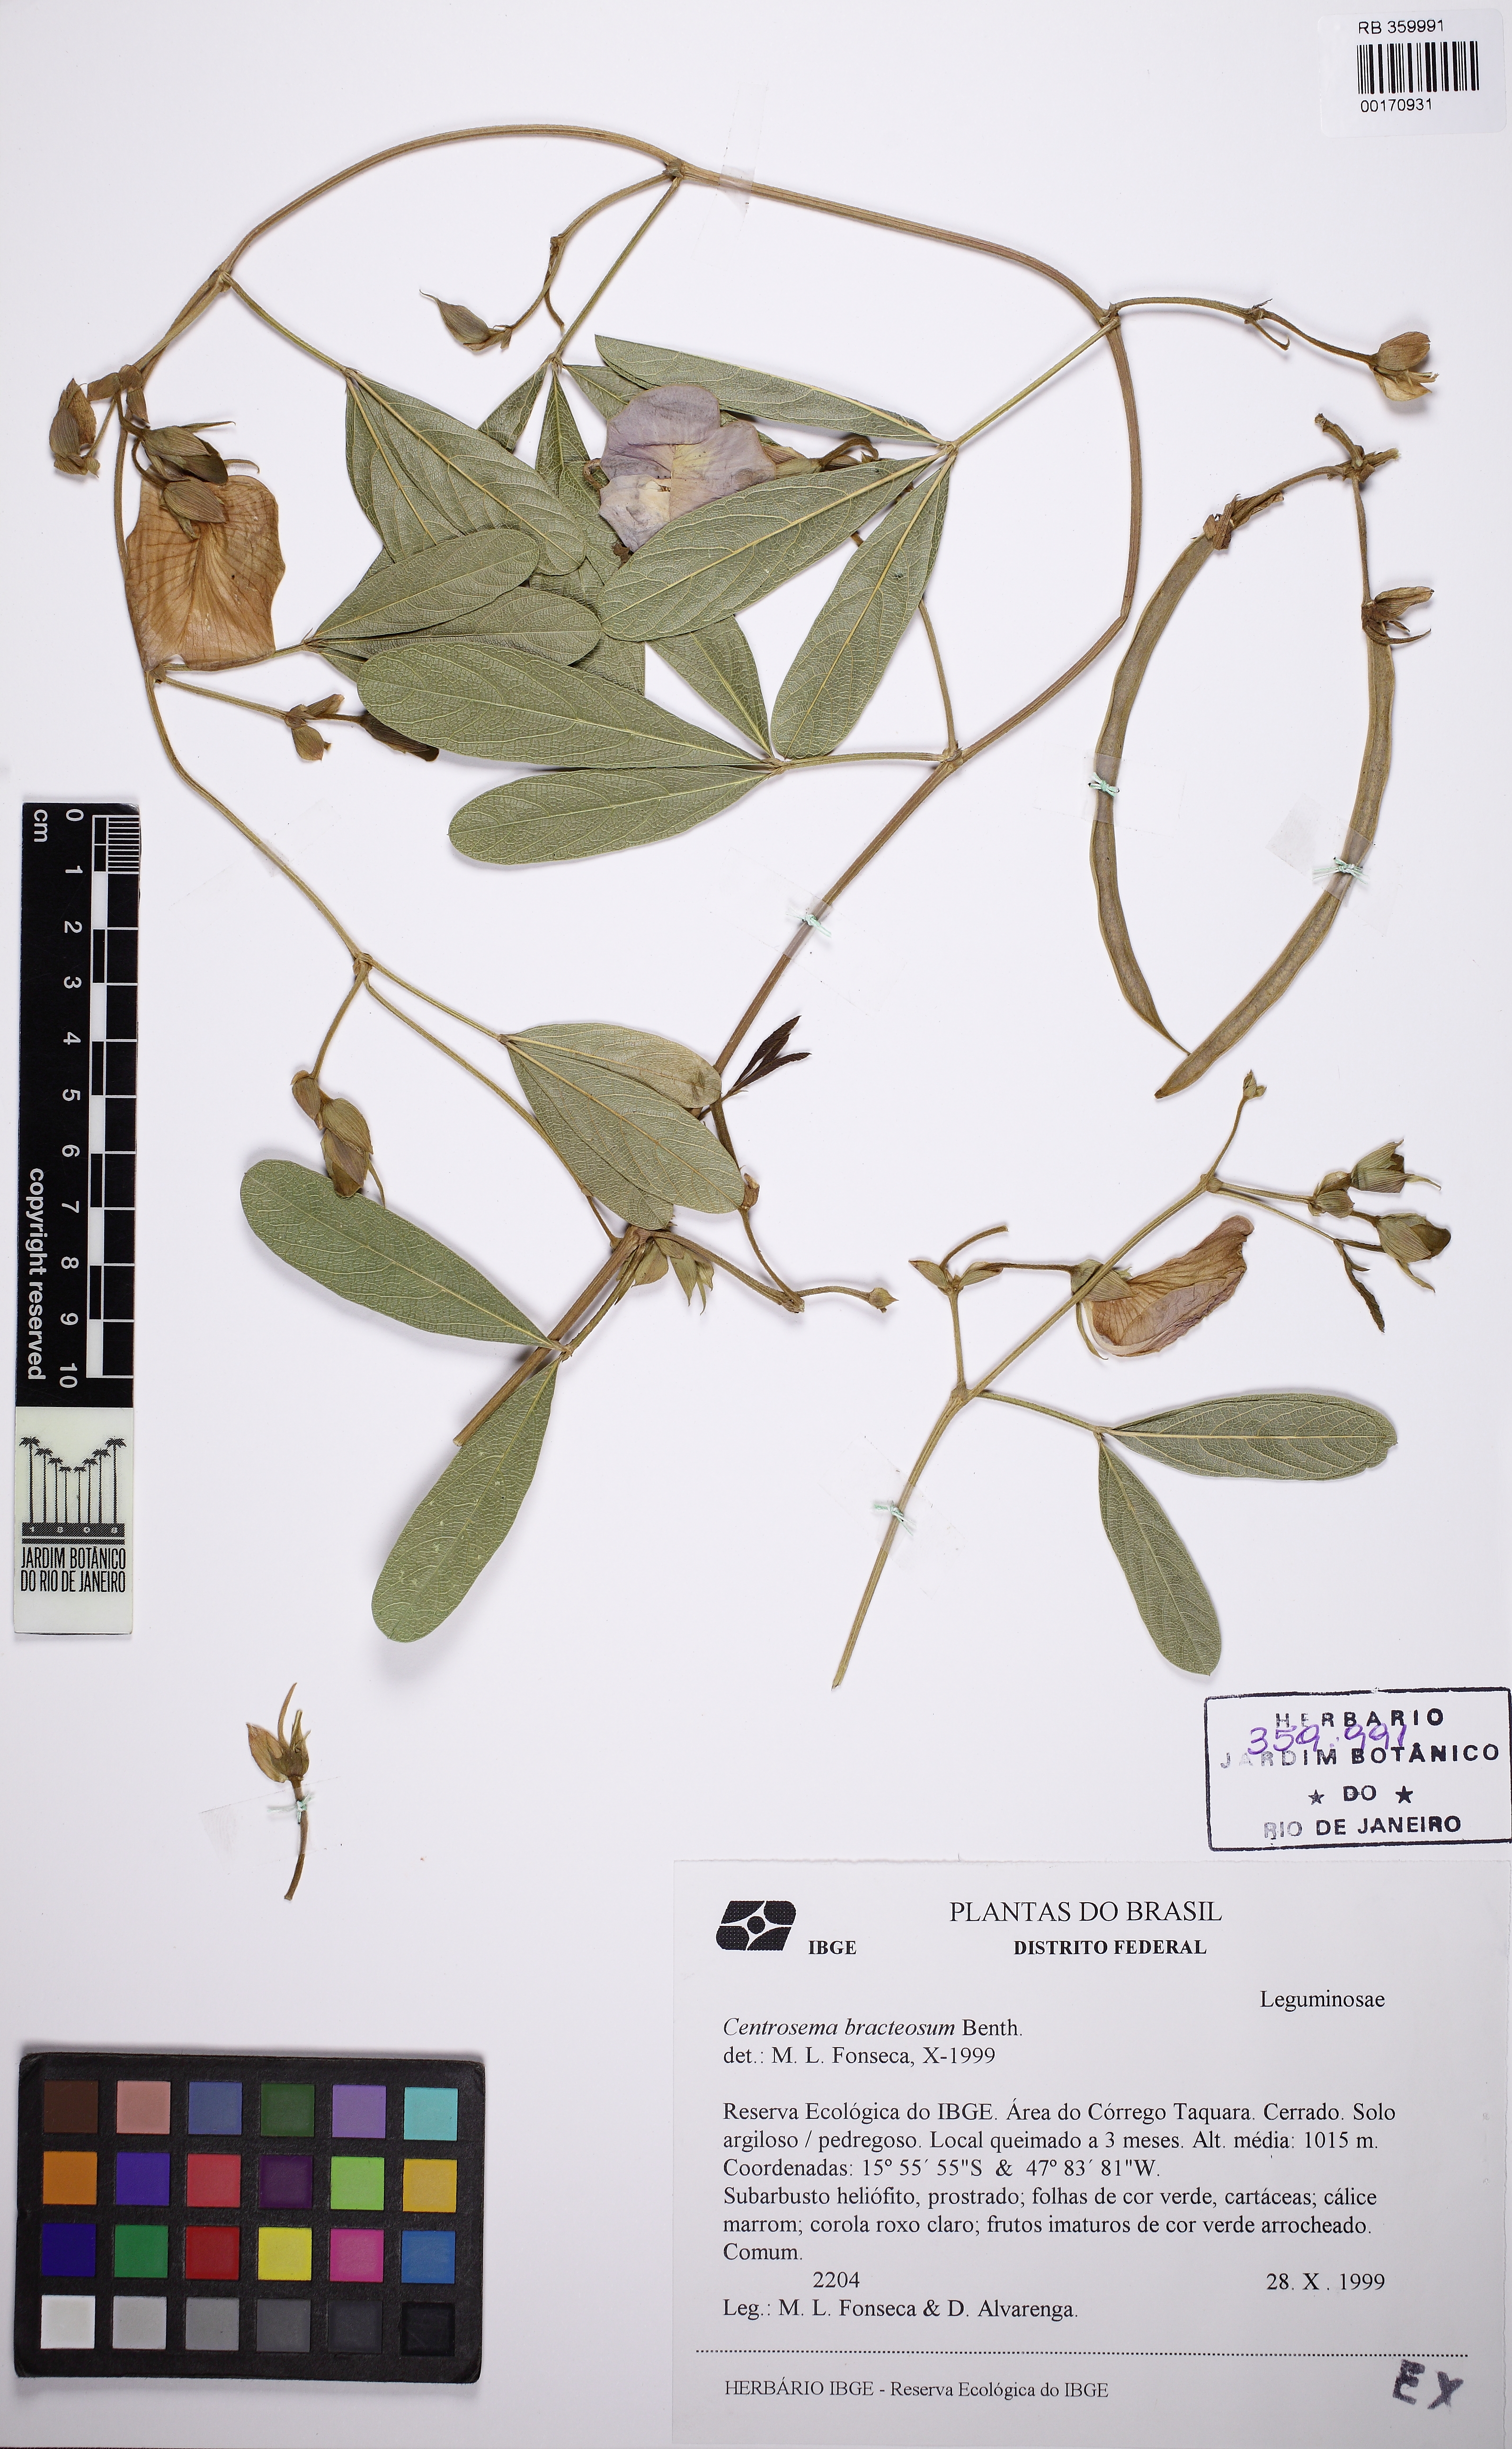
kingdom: Plantae
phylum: Tracheophyta
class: Magnoliopsida
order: Fabales
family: Fabaceae
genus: Centrosema
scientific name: Centrosema brachypodum
